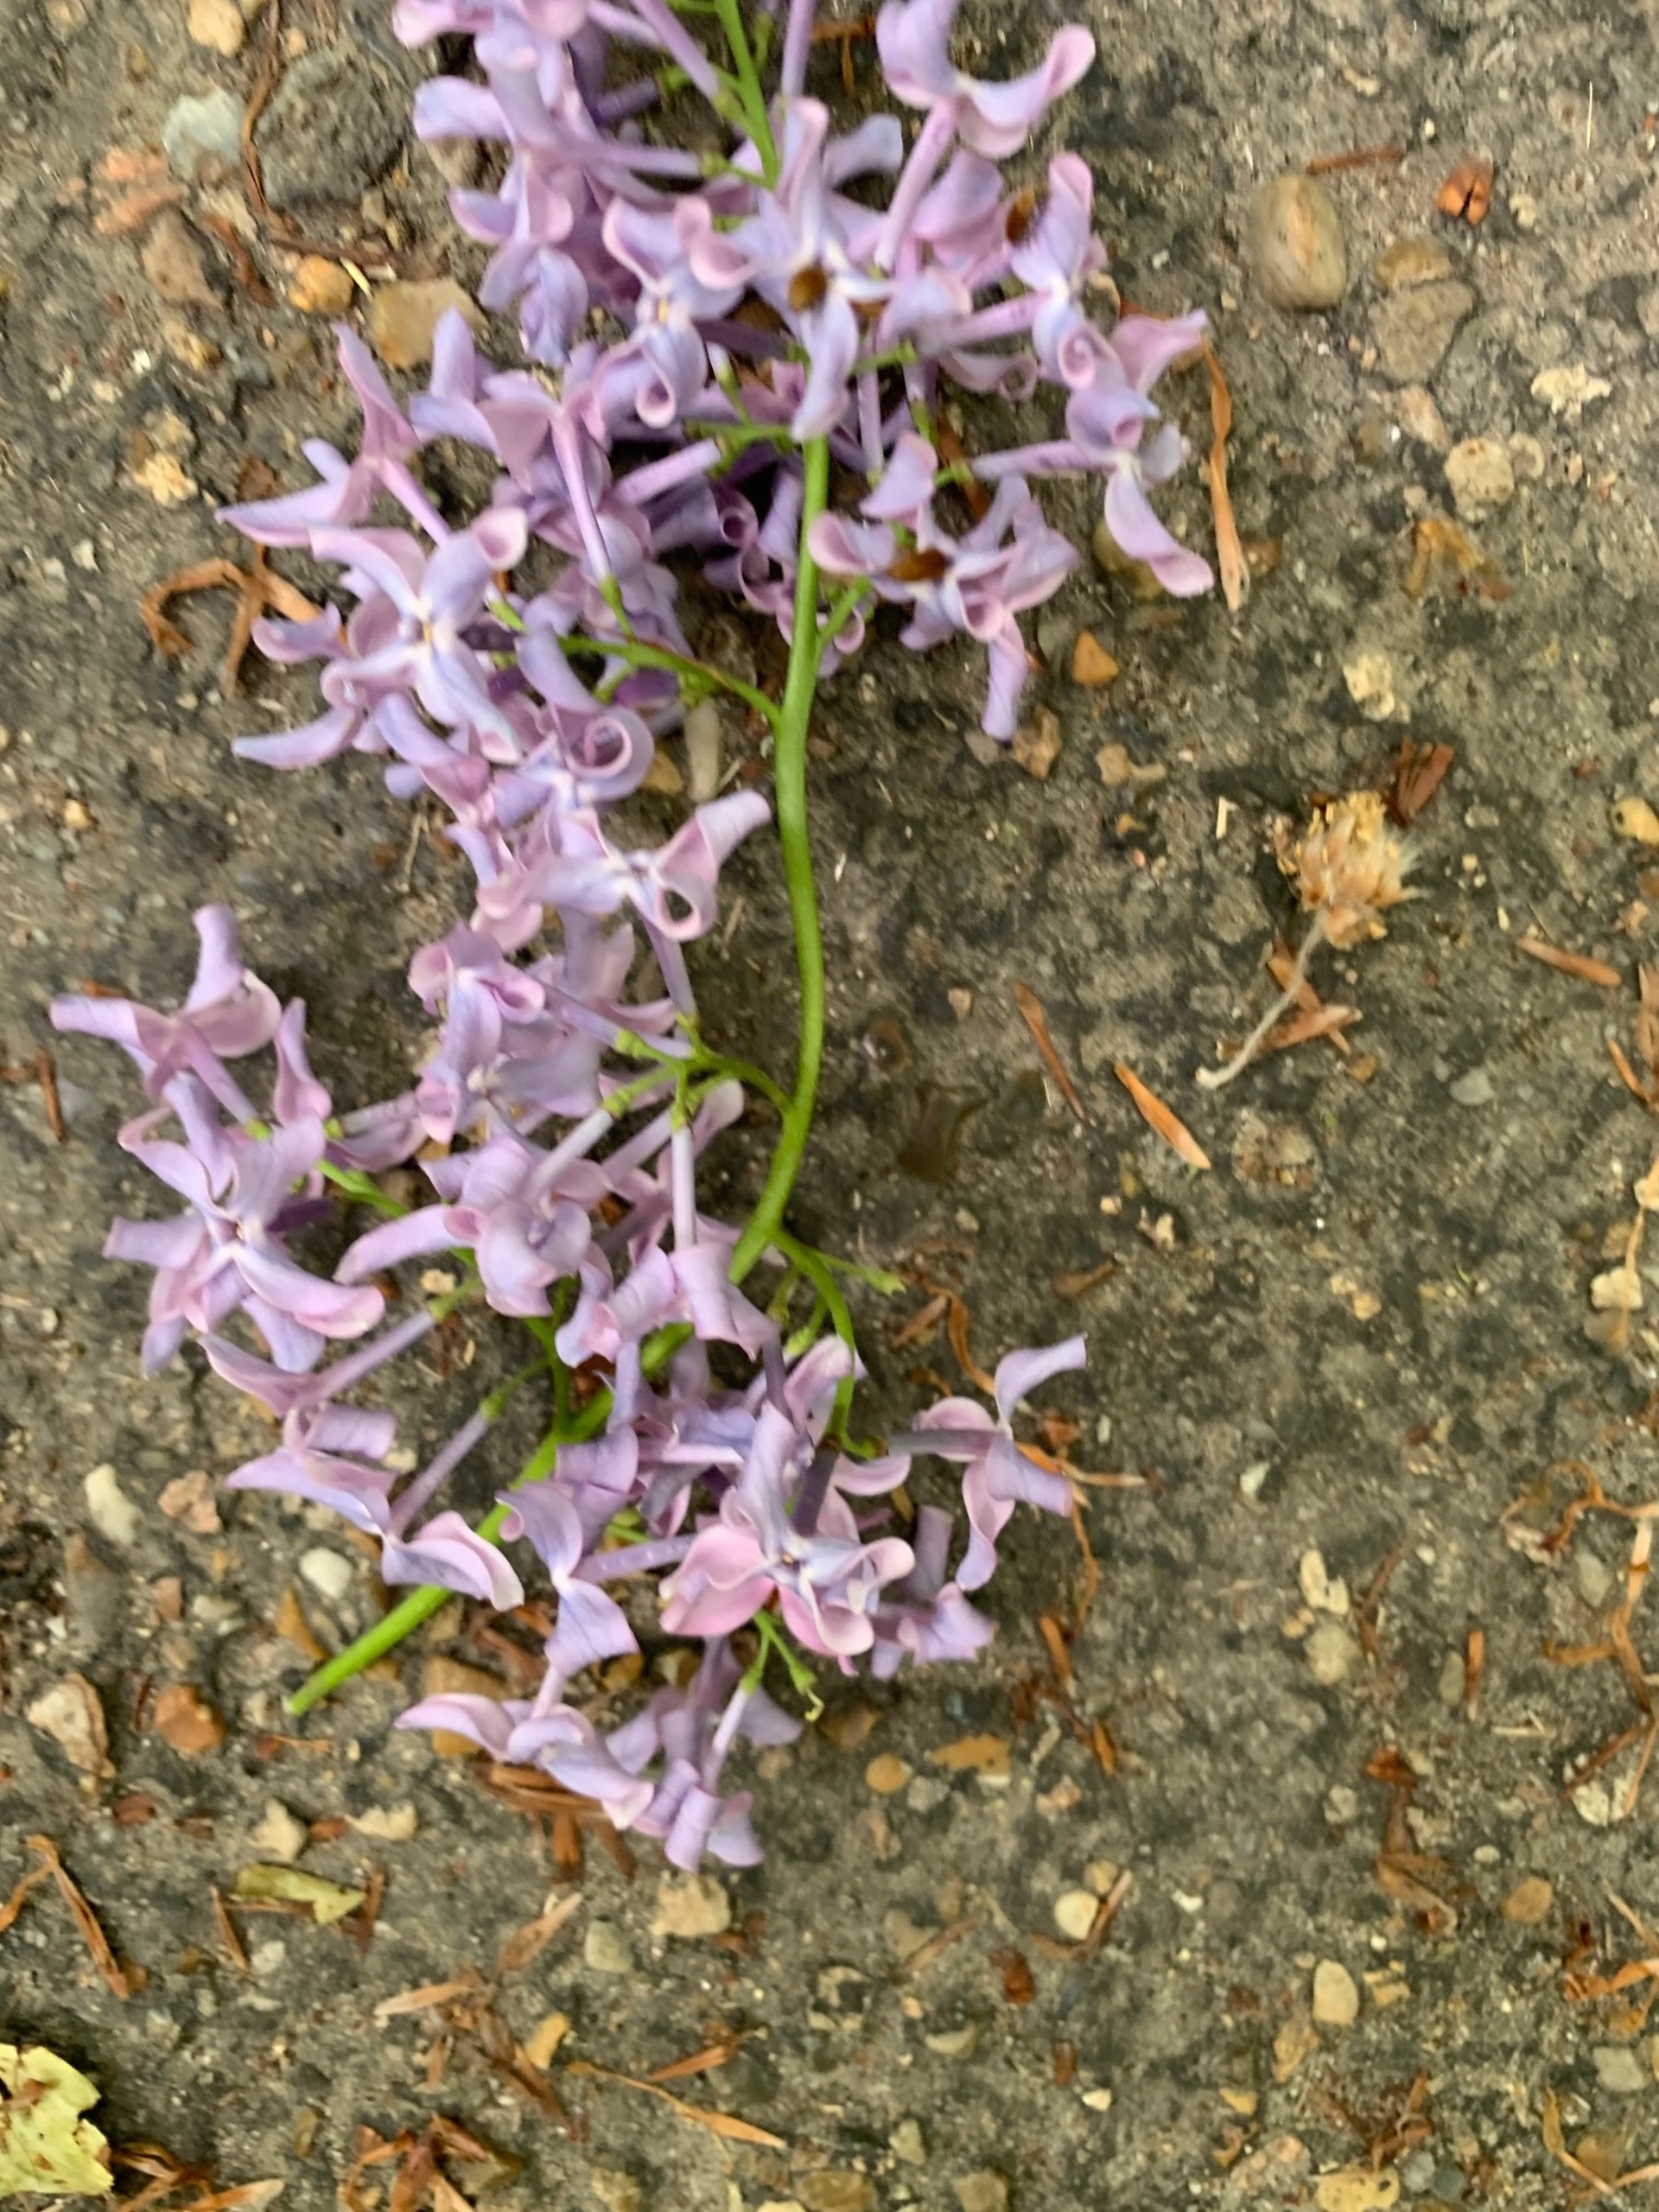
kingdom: Plantae
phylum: Tracheophyta
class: Magnoliopsida
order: Lamiales
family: Oleaceae
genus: Syringa
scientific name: Syringa vulgaris
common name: Syren
